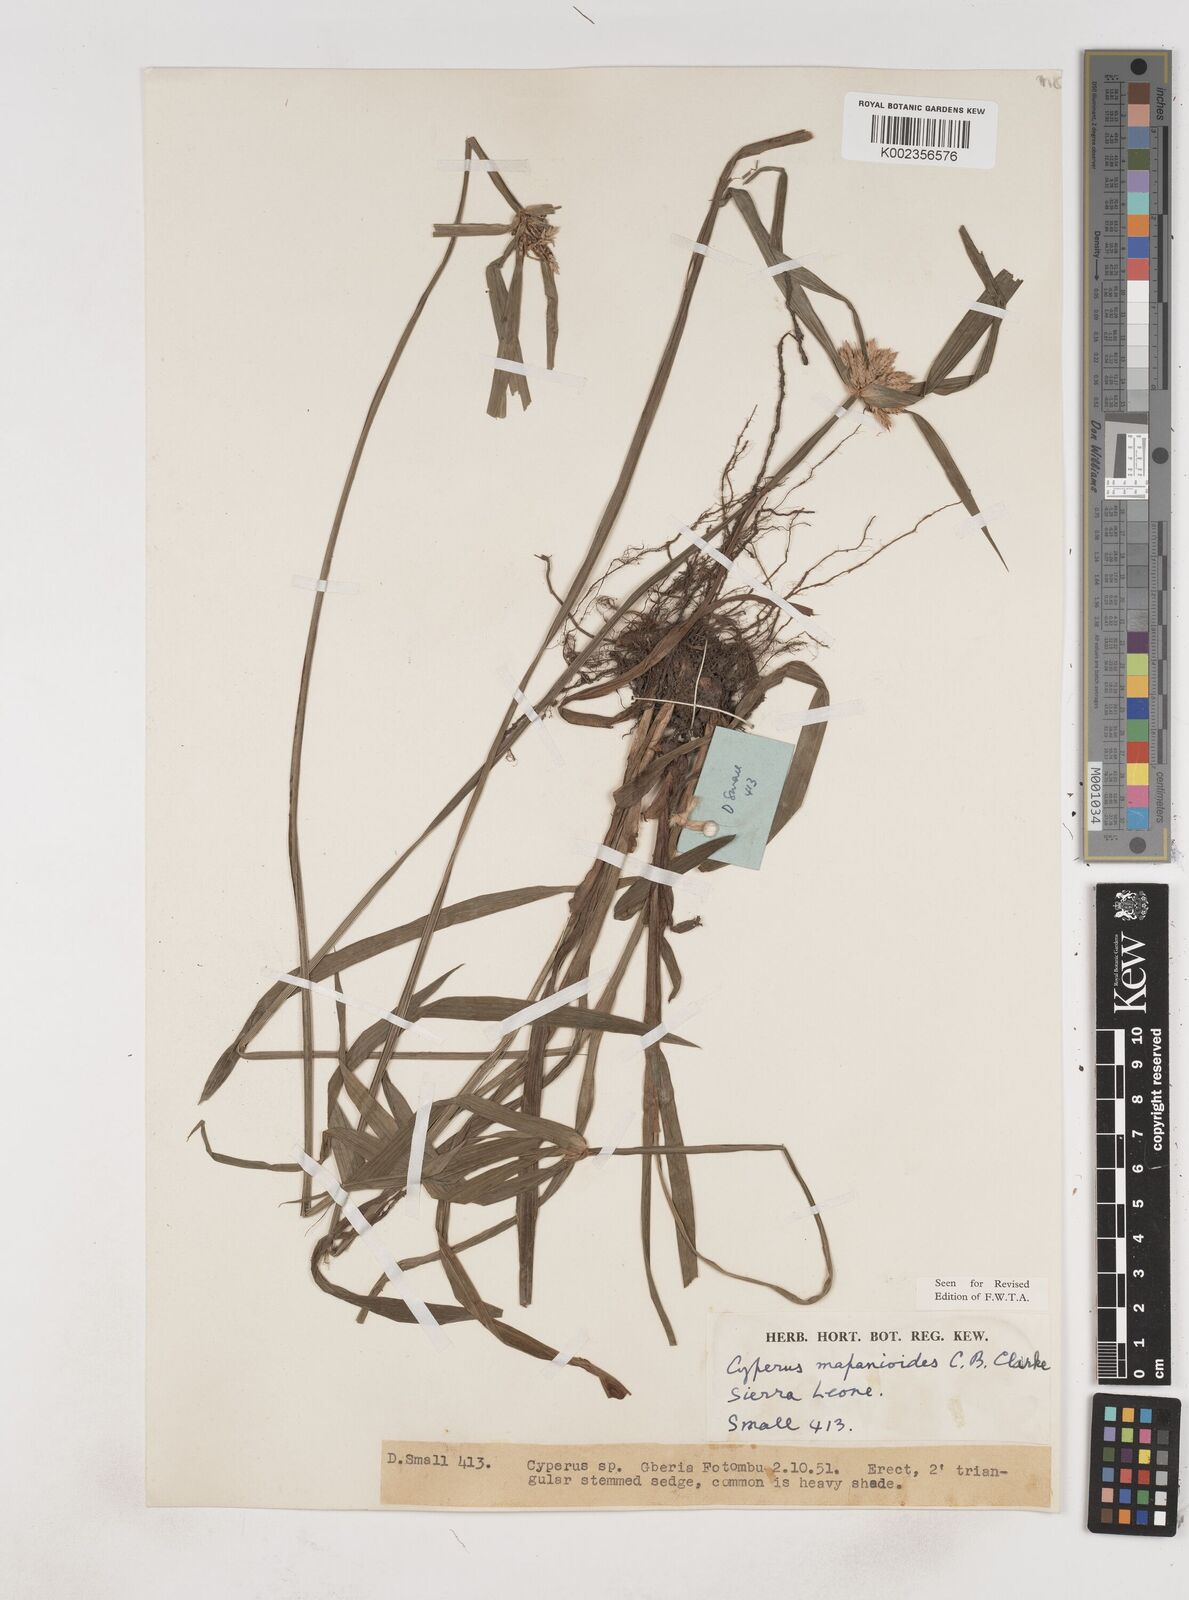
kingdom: Plantae
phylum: Tracheophyta
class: Liliopsida
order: Poales
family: Cyperaceae
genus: Cyperus
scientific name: Cyperus mapanioides
